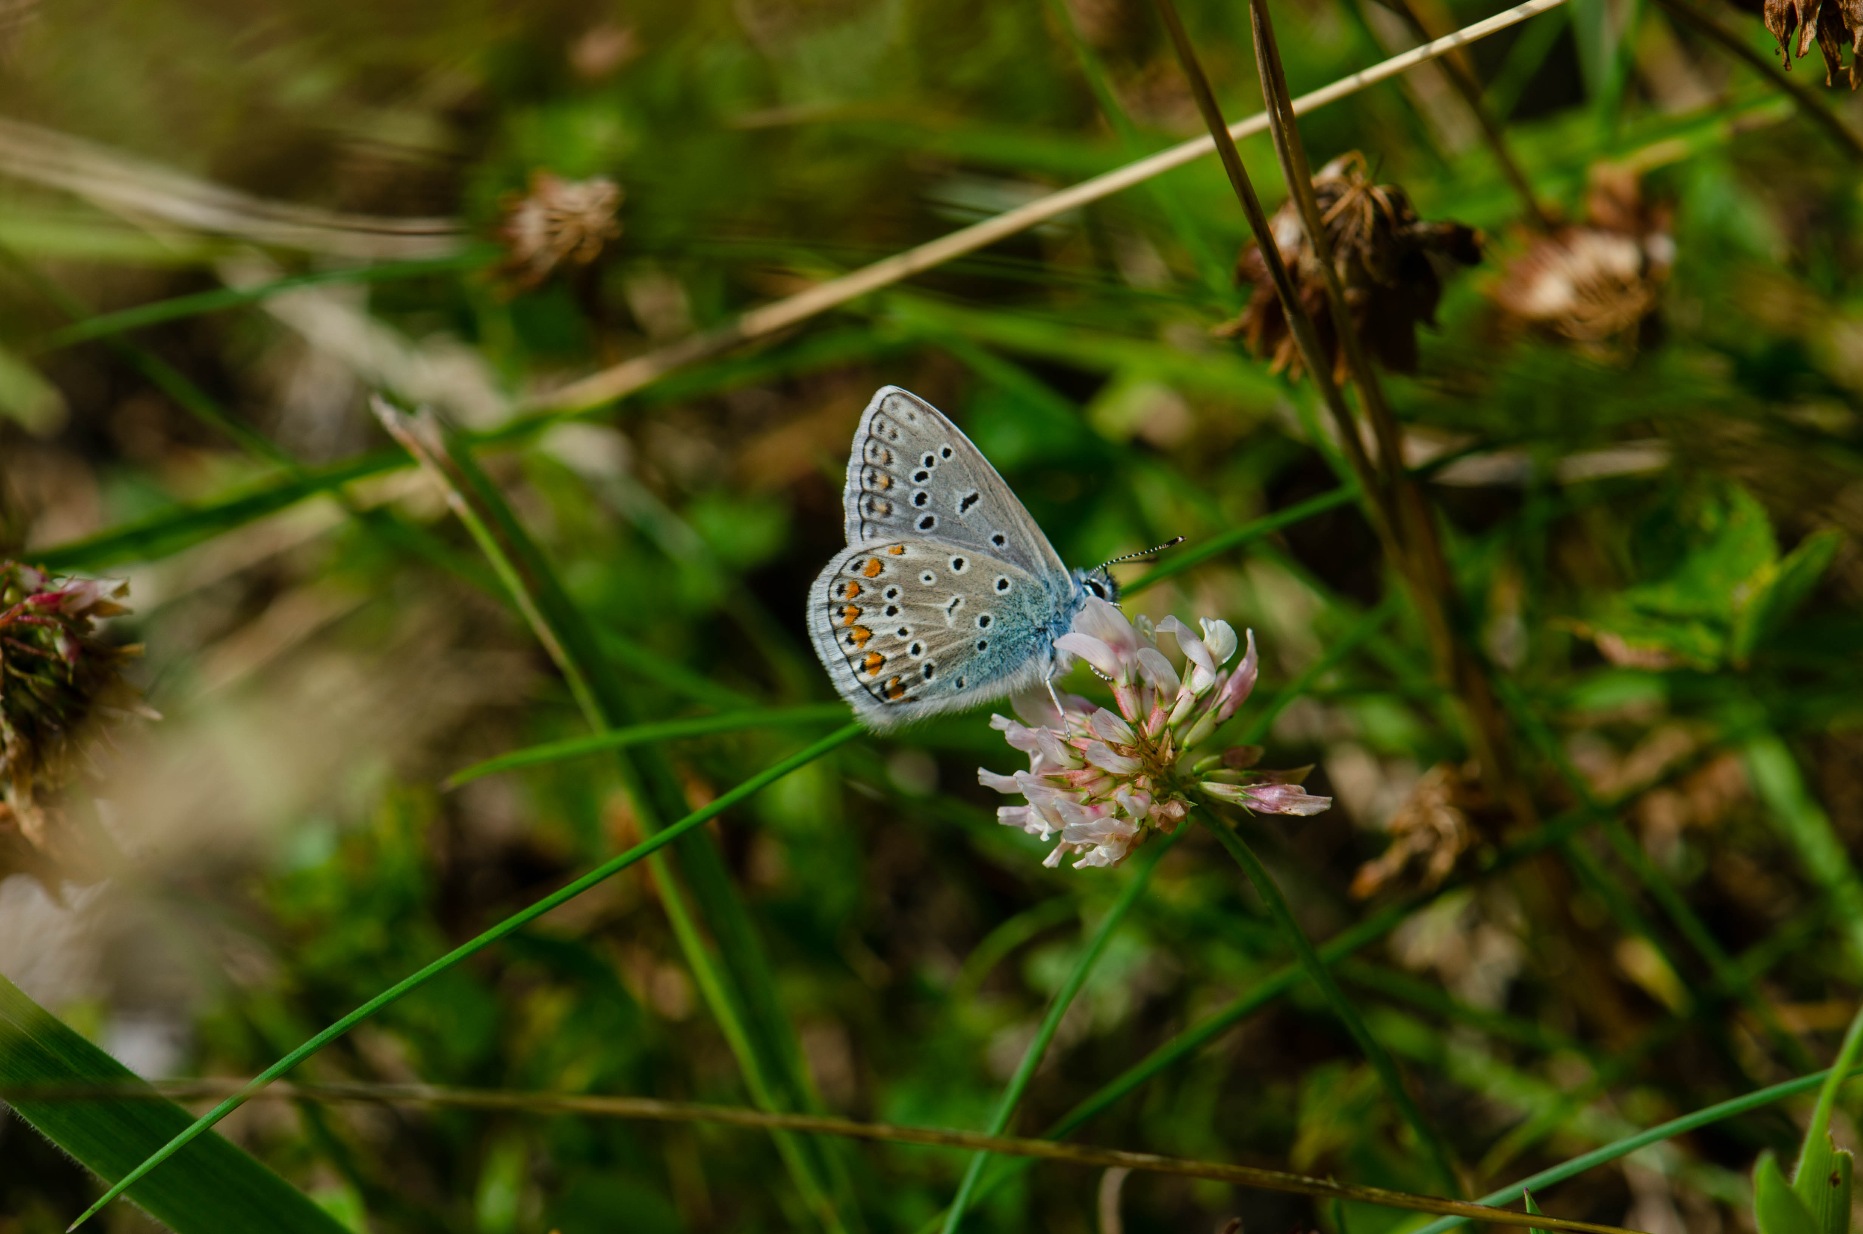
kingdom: Animalia
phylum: Arthropoda
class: Insecta
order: Lepidoptera
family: Lycaenidae
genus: Polyommatus
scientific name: Polyommatus icarus
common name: Almindelig blåfugl
